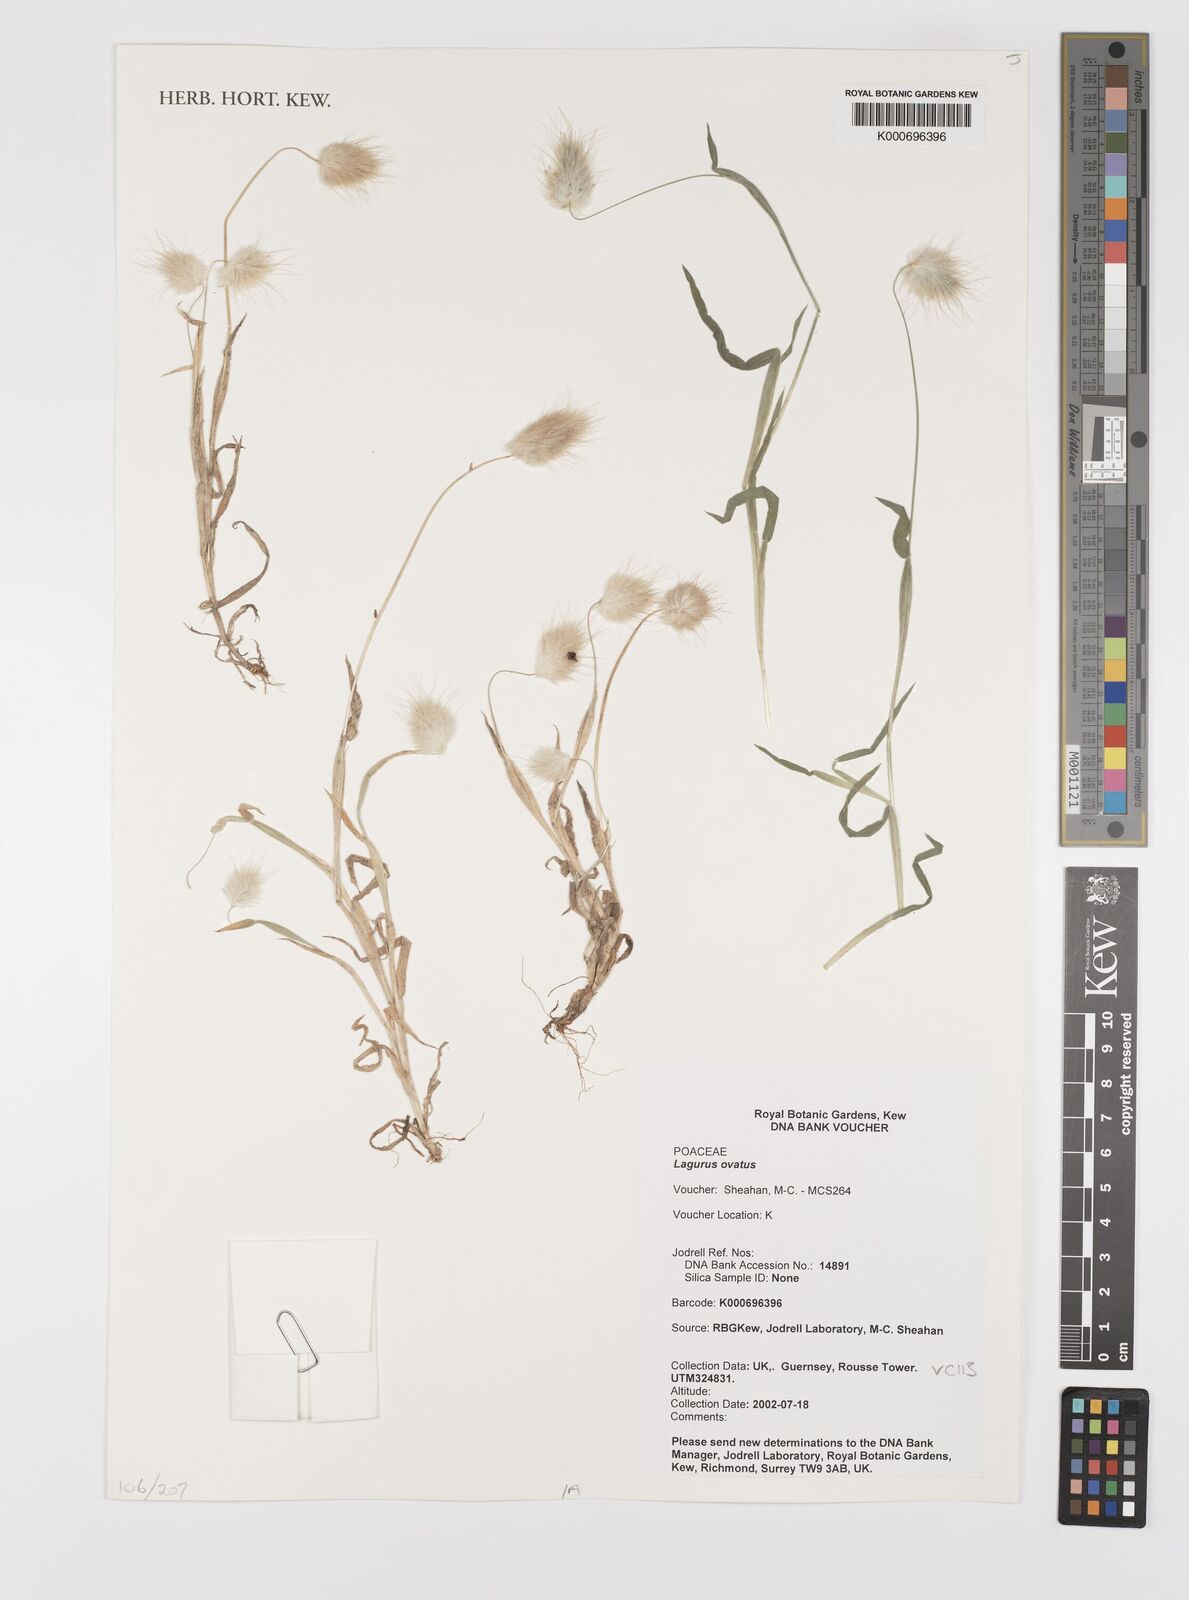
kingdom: Plantae
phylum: Tracheophyta
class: Liliopsida
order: Poales
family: Poaceae
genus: Lagurus
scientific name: Lagurus ovatus
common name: Hare's-tail
